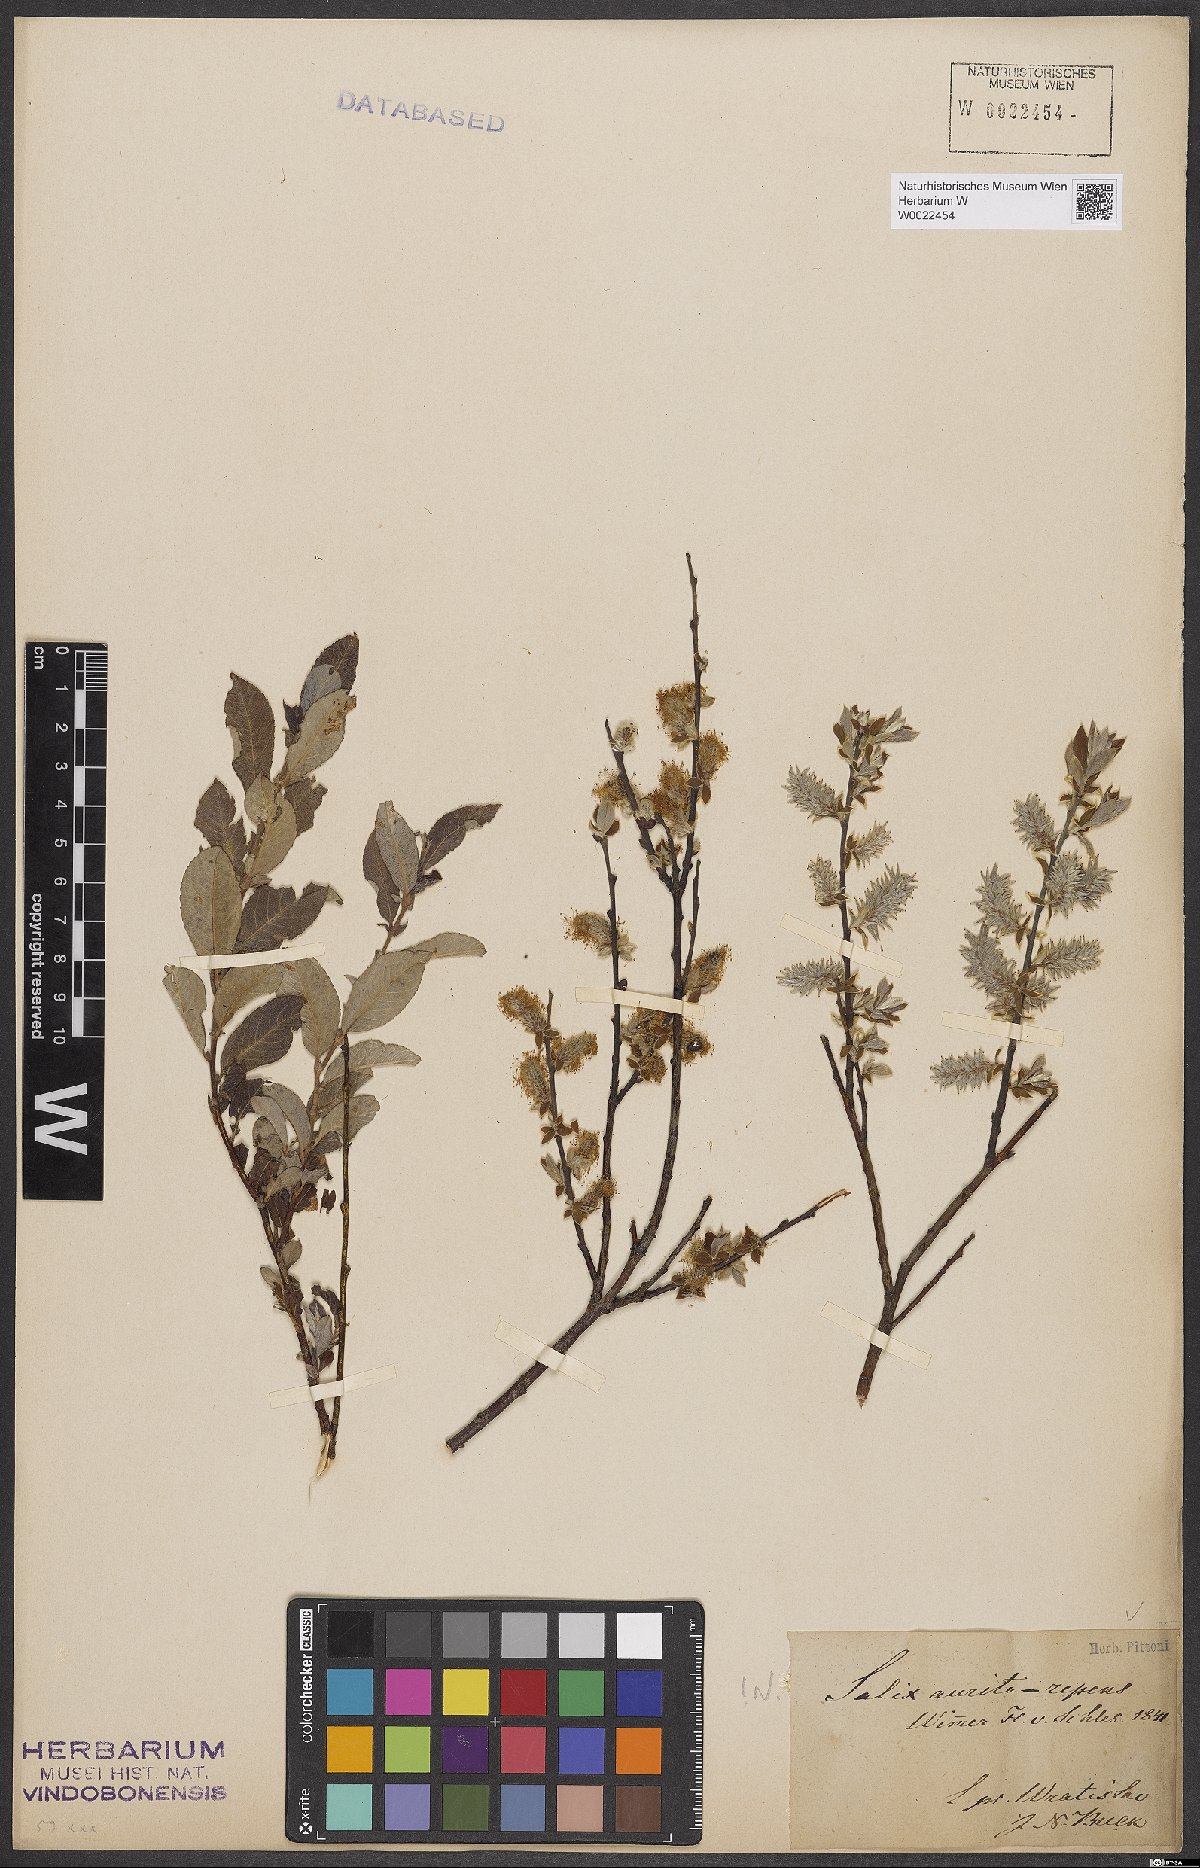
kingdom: Plantae
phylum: Tracheophyta
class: Magnoliopsida
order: Malpighiales
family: Salicaceae
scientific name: Salicaceae
